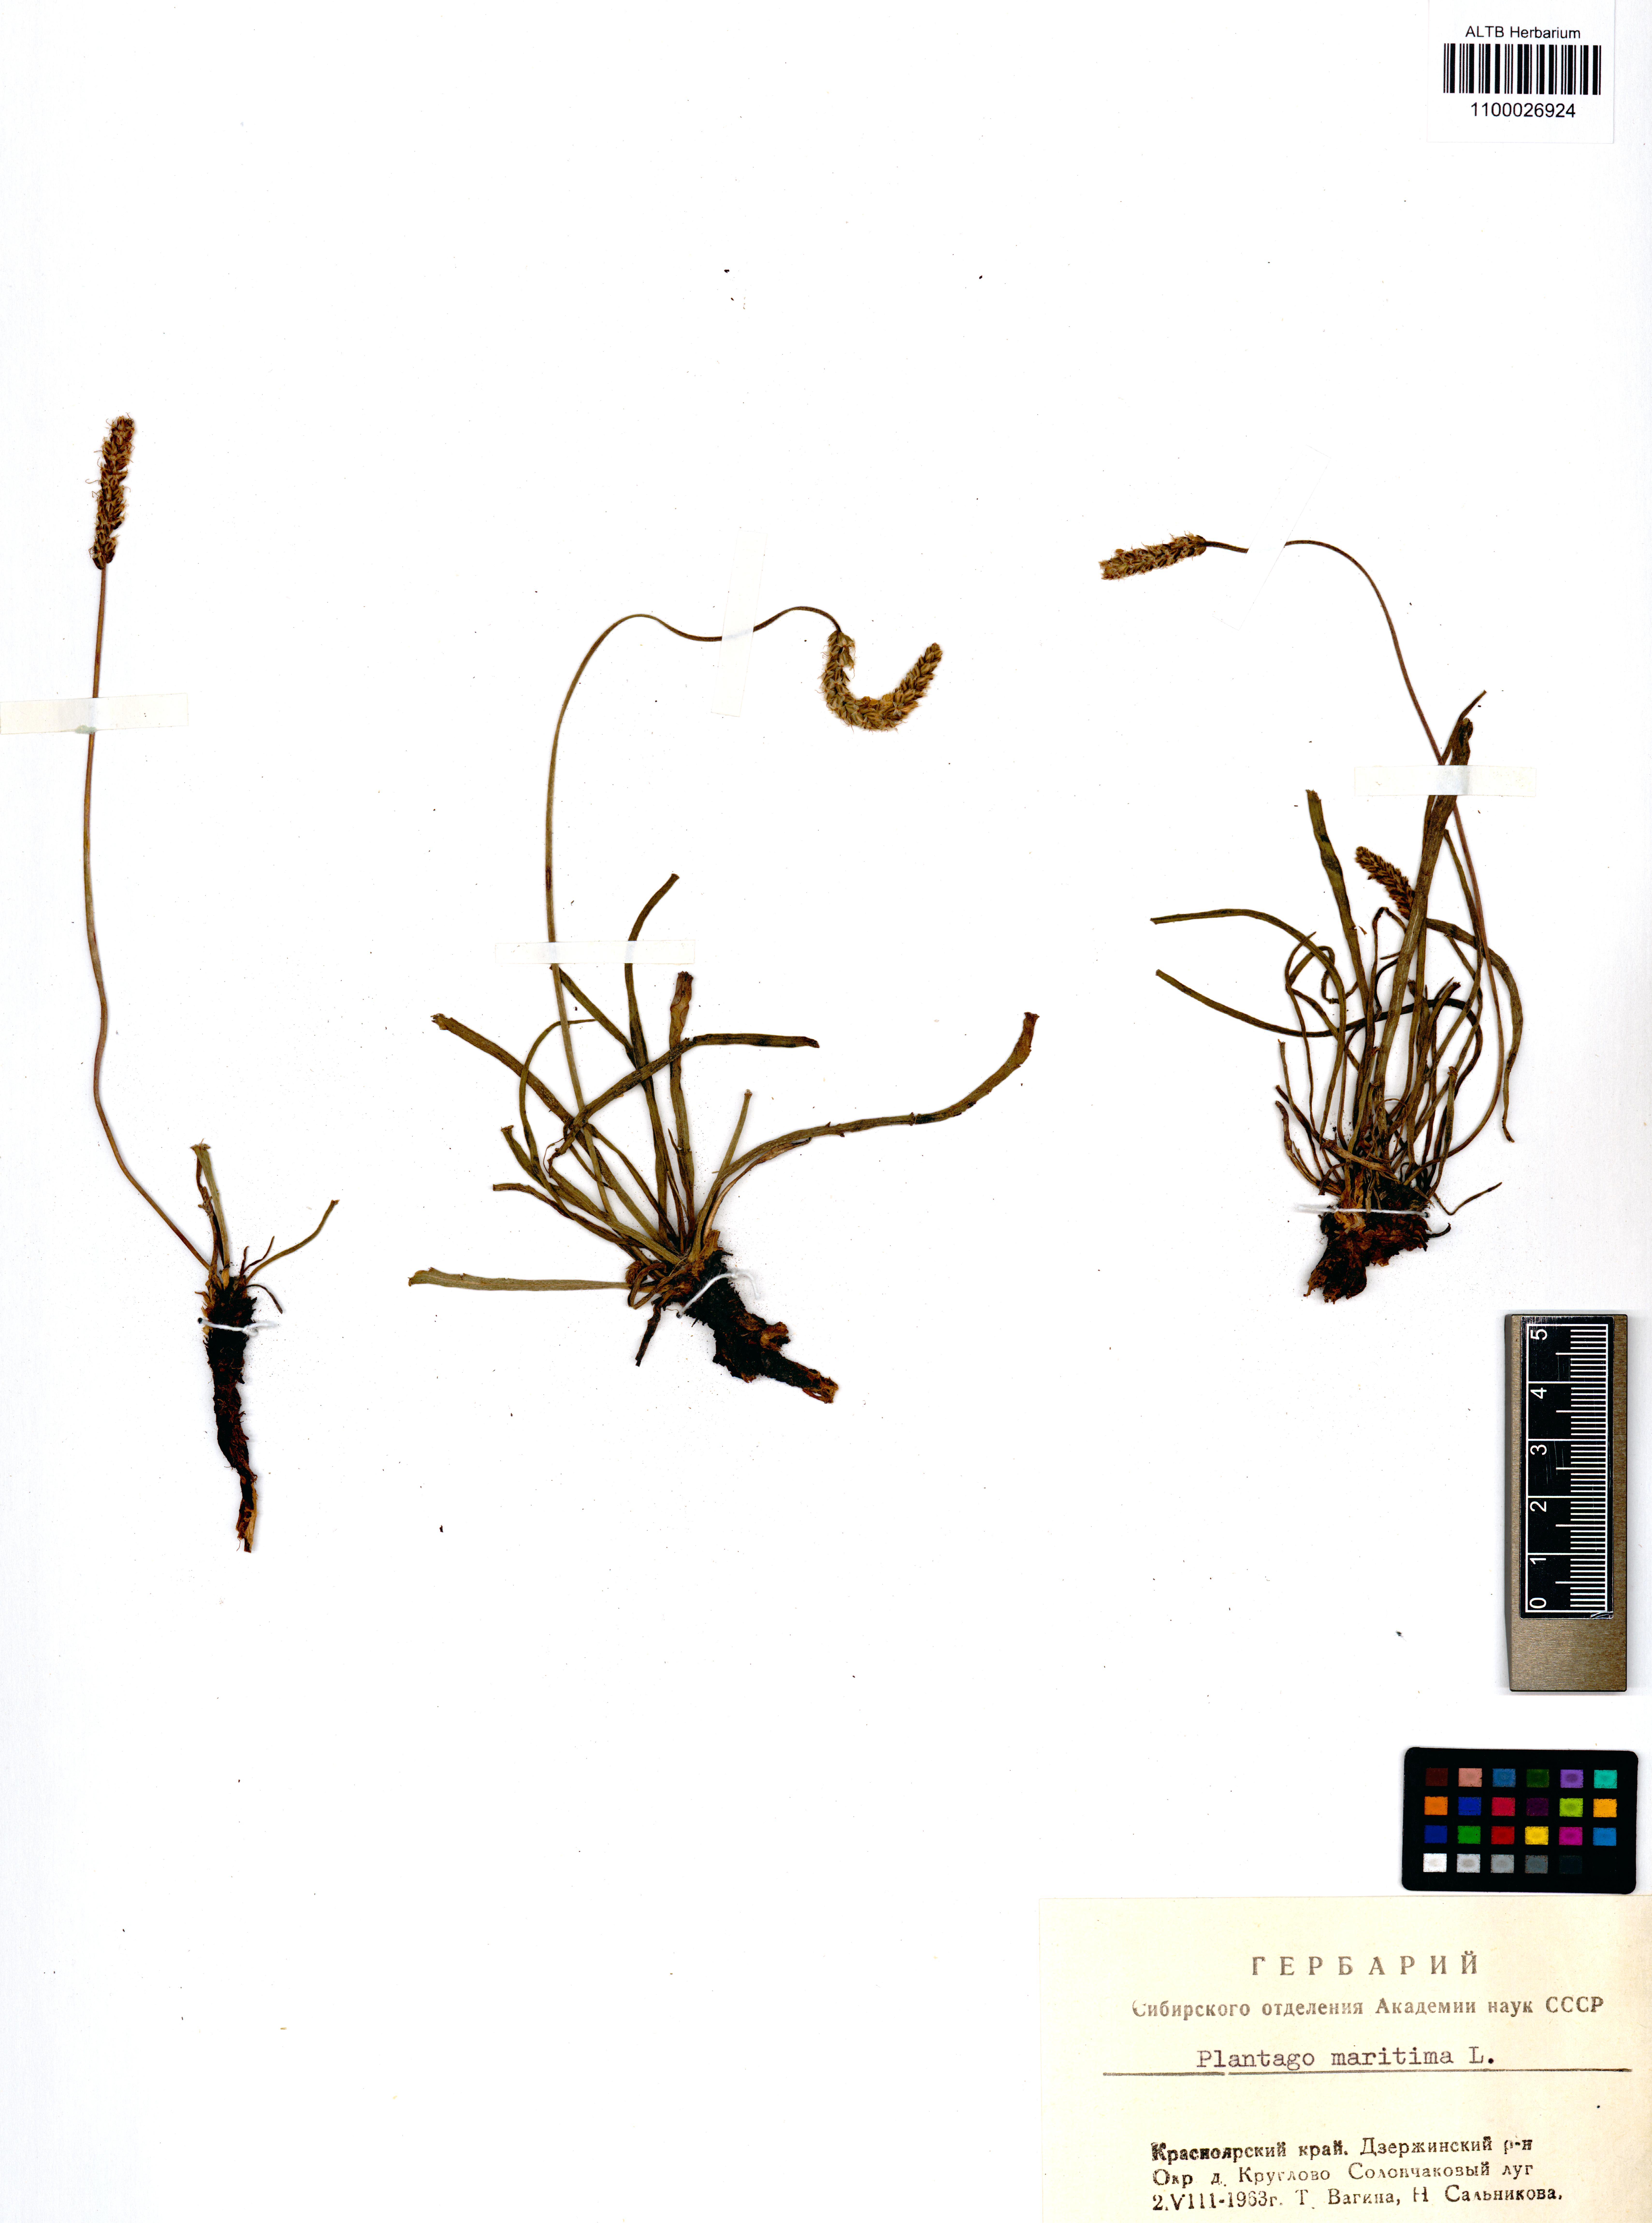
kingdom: Plantae
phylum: Tracheophyta
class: Magnoliopsida
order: Lamiales
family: Plantaginaceae
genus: Plantago
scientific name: Plantago maritima
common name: Sea plantain
